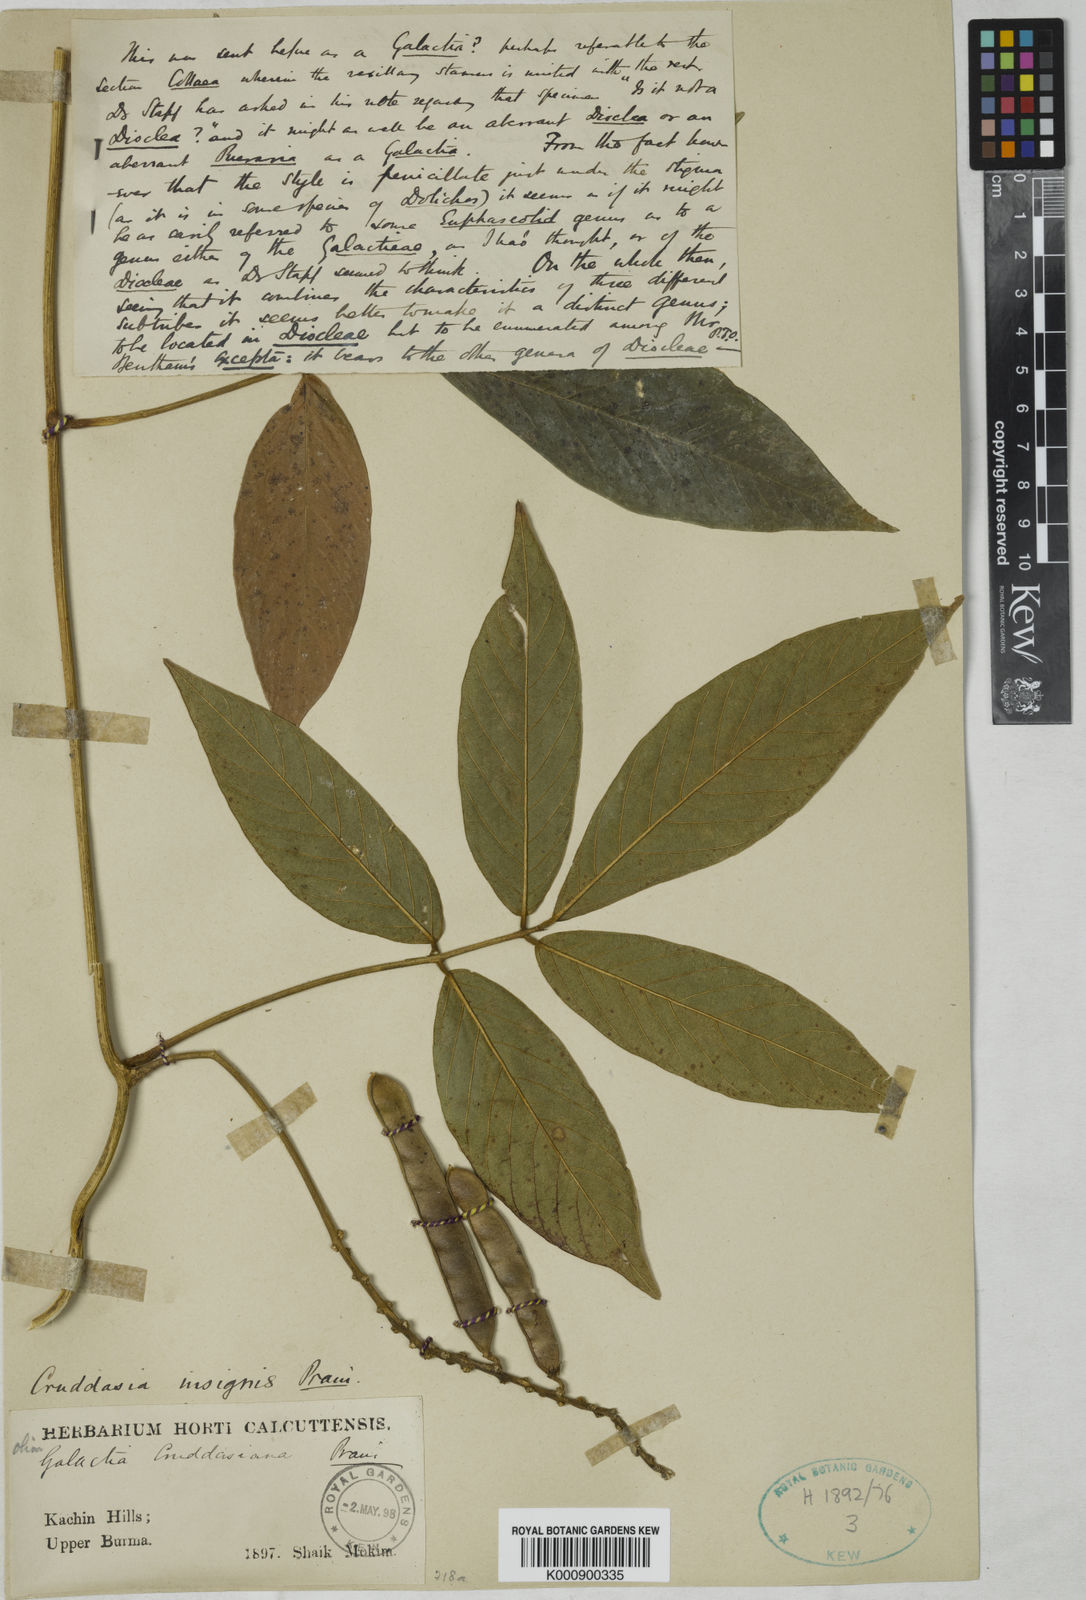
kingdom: Plantae
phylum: Tracheophyta
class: Magnoliopsida
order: Fabales
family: Fabaceae
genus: Cruddasia
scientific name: Cruddasia insignis
